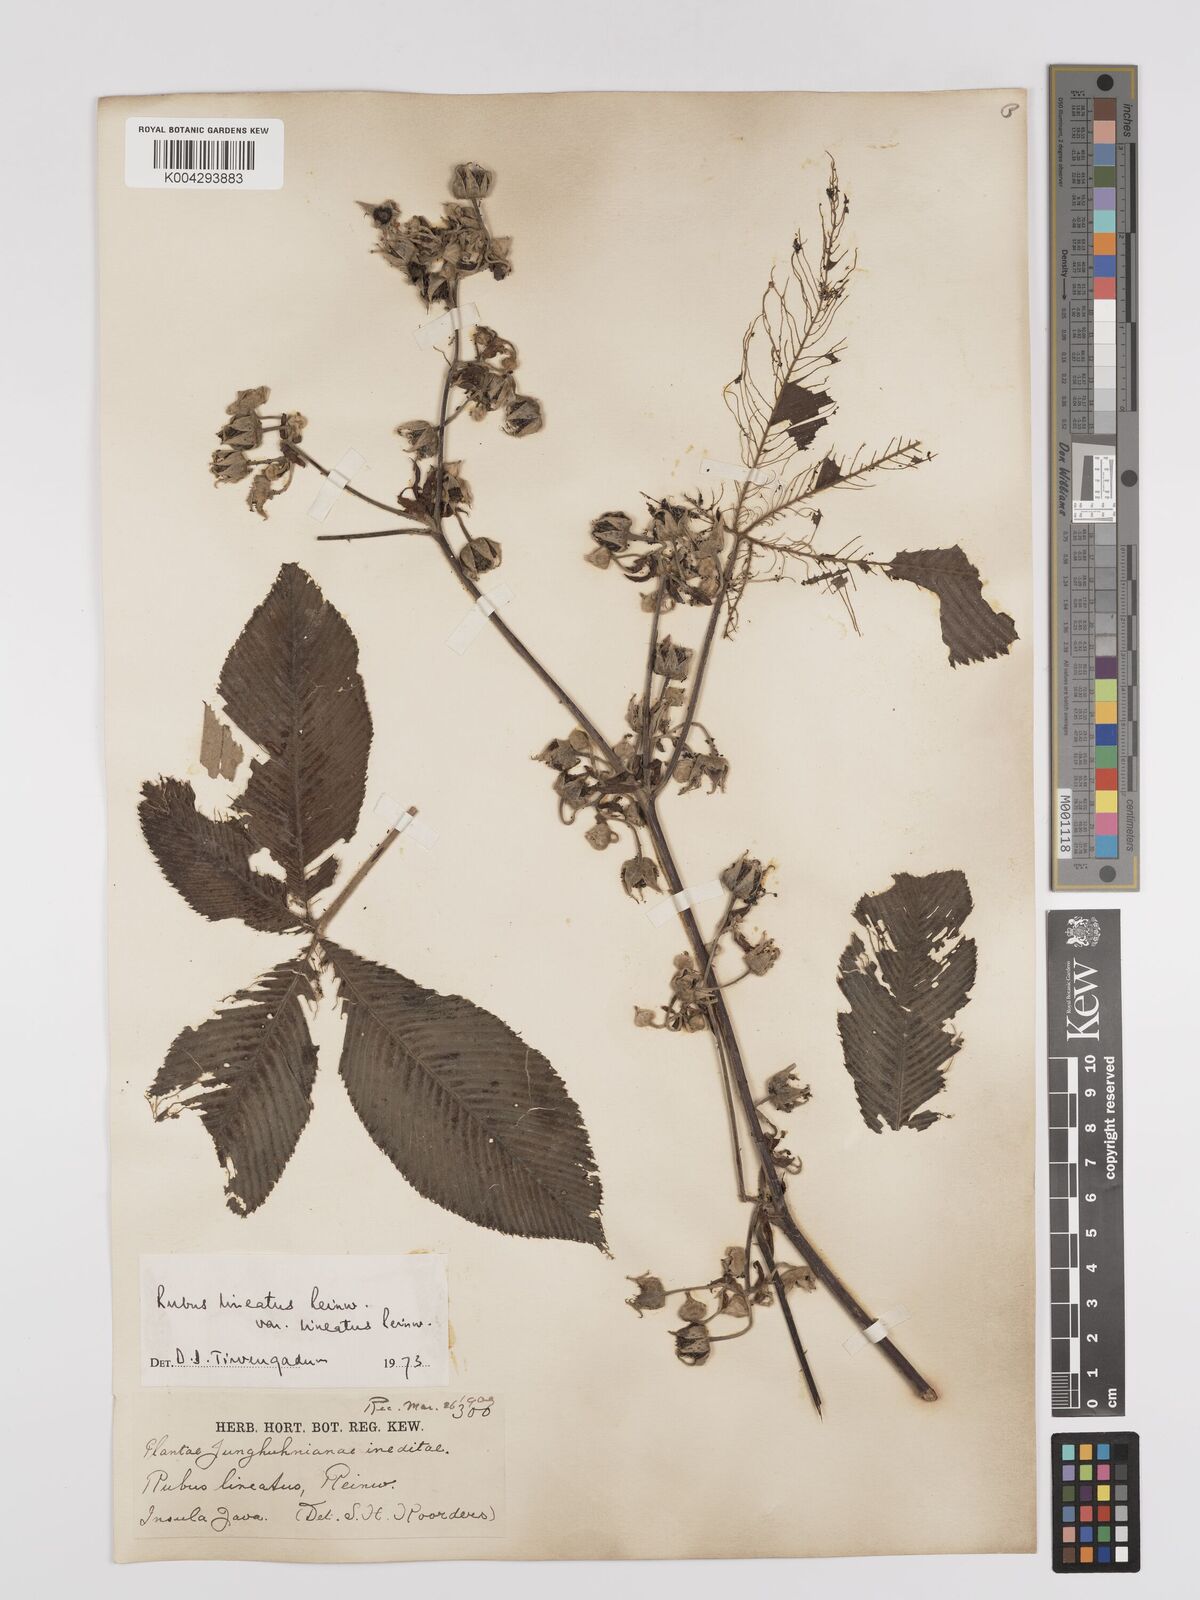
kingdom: Plantae
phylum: Tracheophyta
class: Magnoliopsida
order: Rosales
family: Rosaceae
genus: Rubus
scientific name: Rubus lineatus
